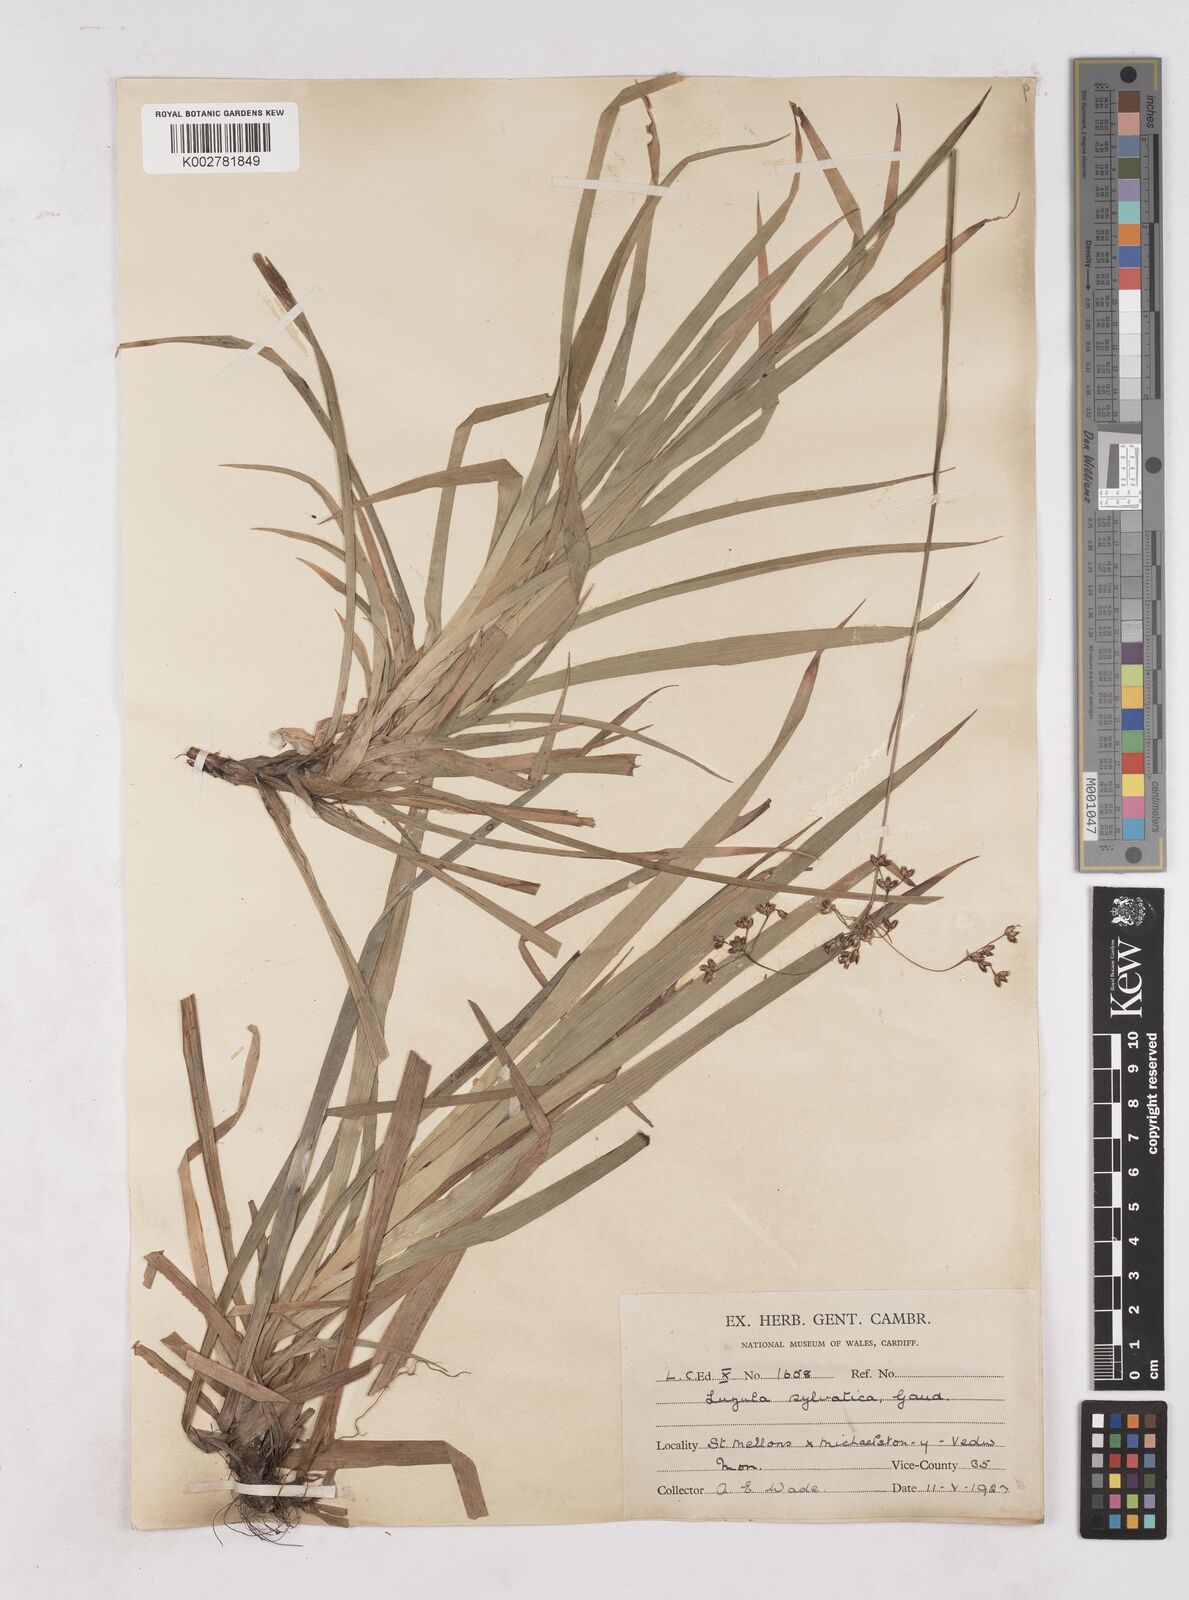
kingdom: Plantae
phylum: Tracheophyta
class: Liliopsida
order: Poales
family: Juncaceae
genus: Luzula
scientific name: Luzula sylvatica
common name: Great wood-rush
